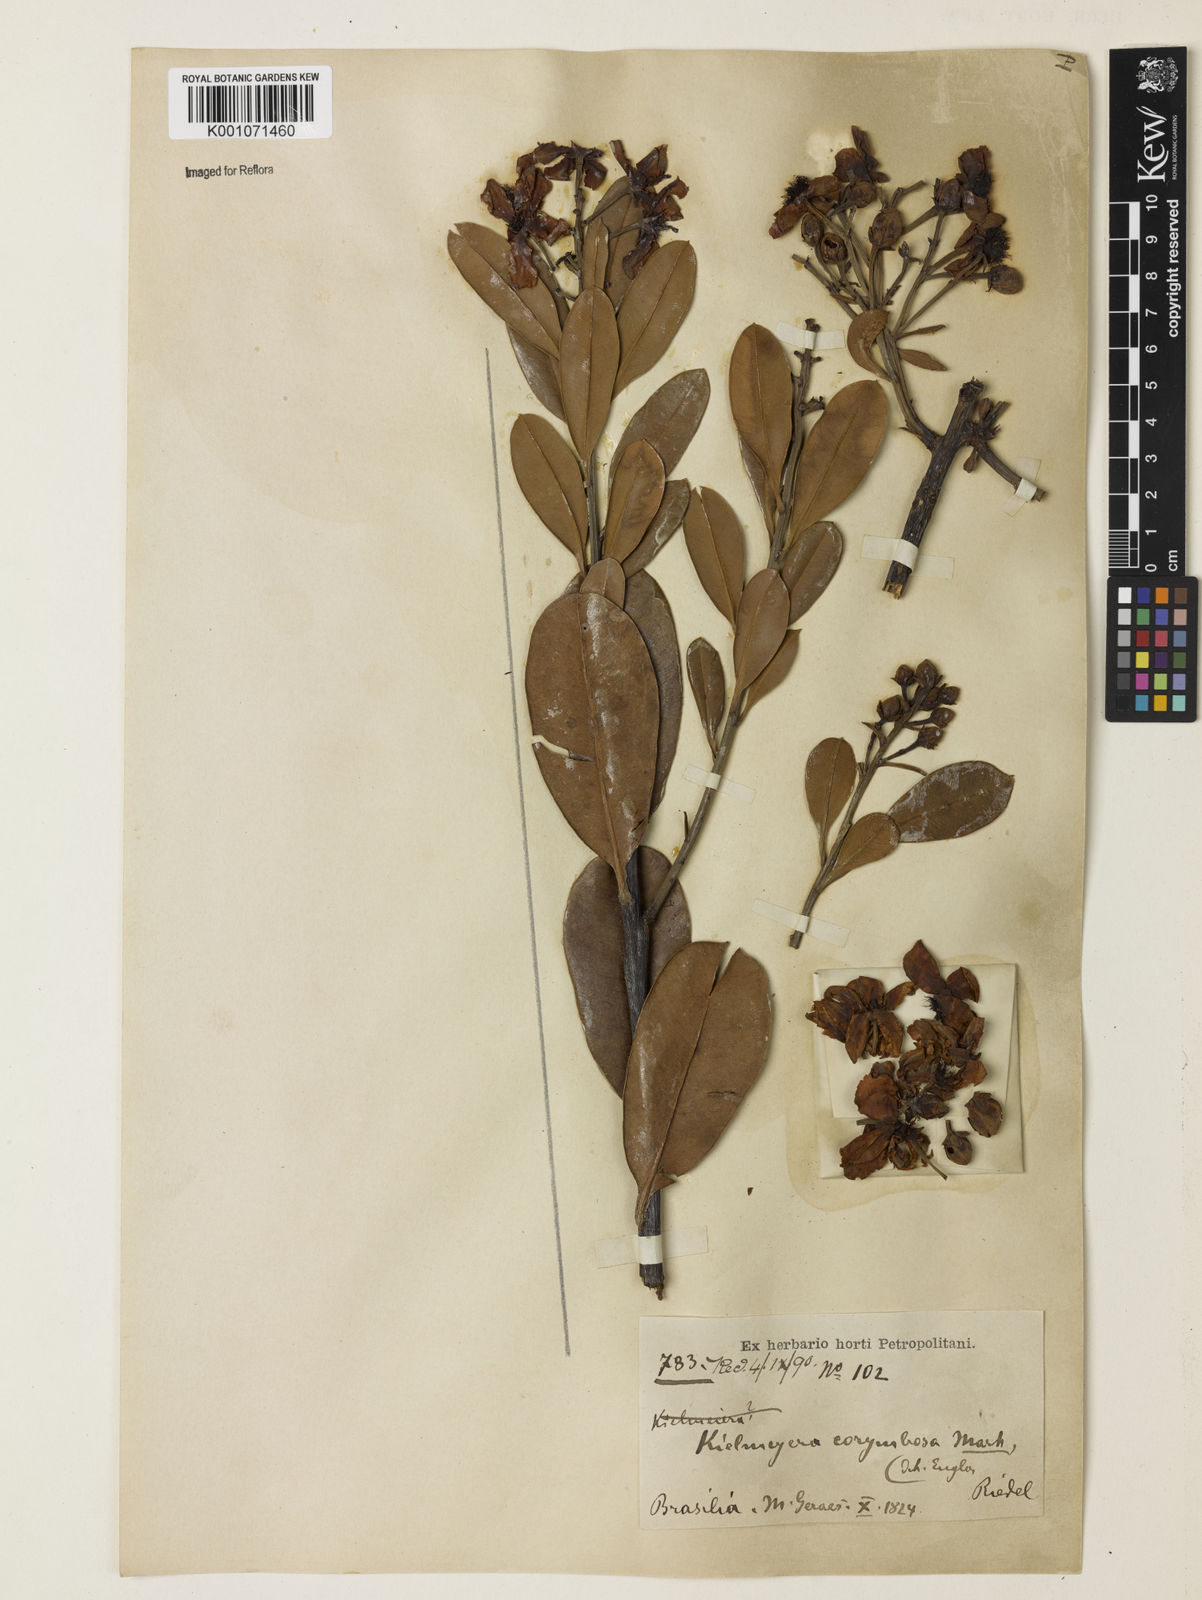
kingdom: Plantae
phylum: Tracheophyta
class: Magnoliopsida
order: Malpighiales
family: Calophyllaceae
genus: Kielmeyera
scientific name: Kielmeyera corymbosa
